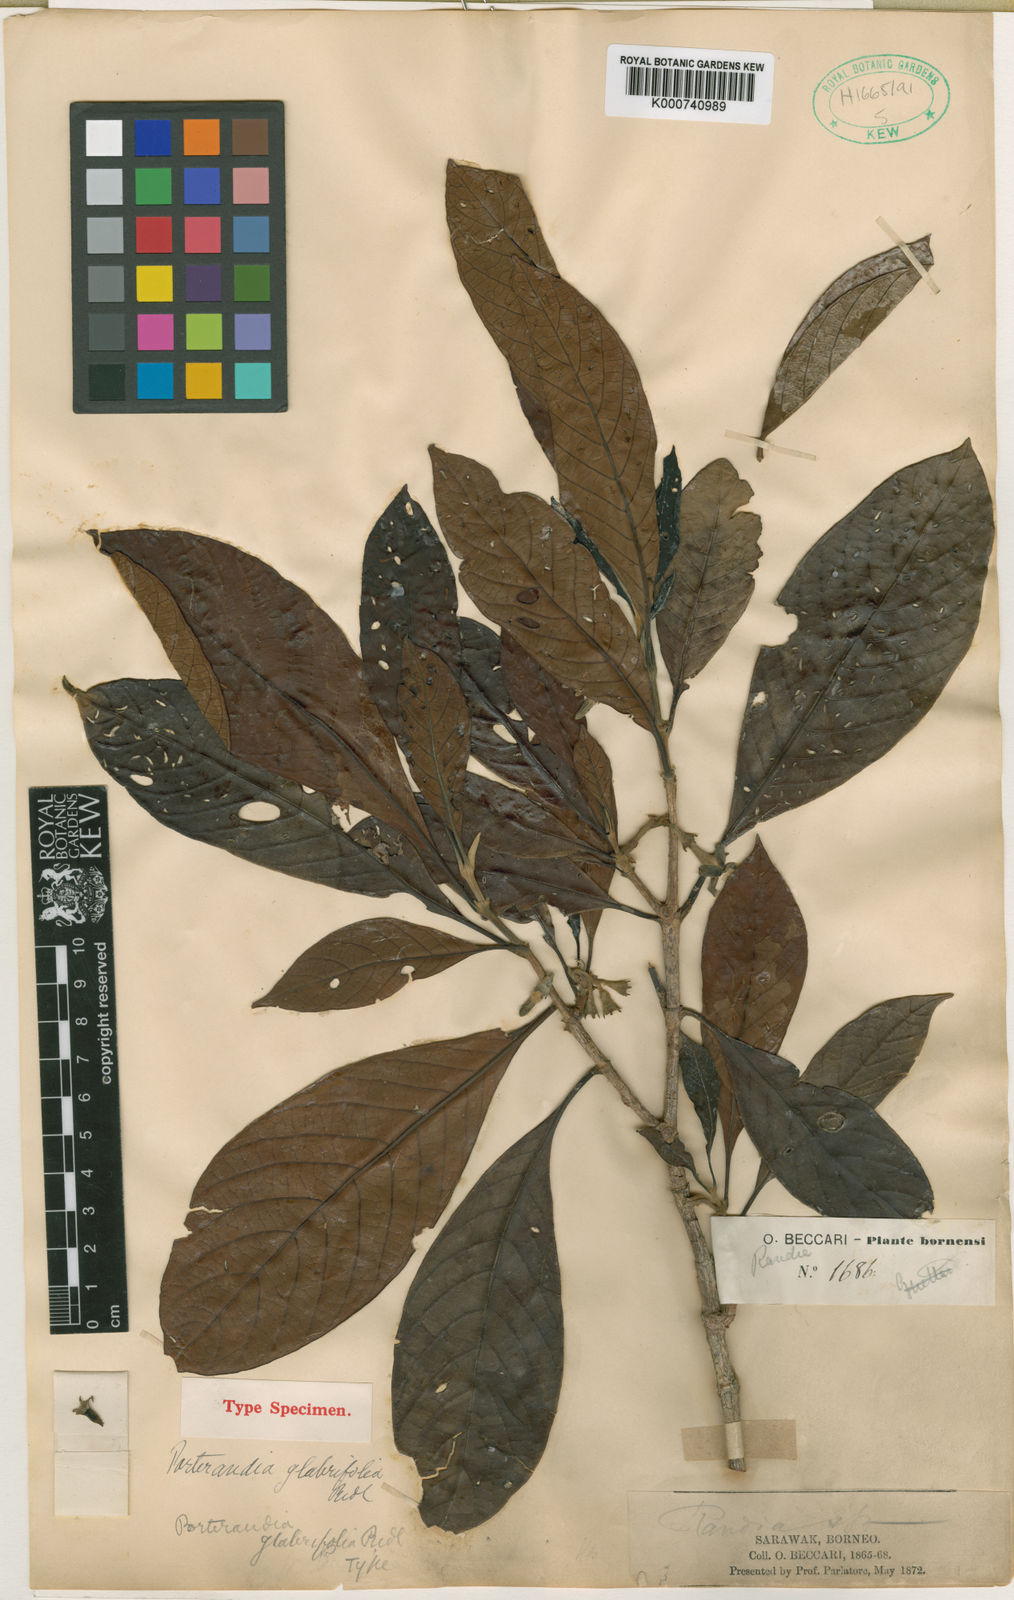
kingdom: Plantae
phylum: Tracheophyta
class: Magnoliopsida
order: Gentianales
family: Rubiaceae
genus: Porterandia
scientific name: Porterandia glabrifolia
